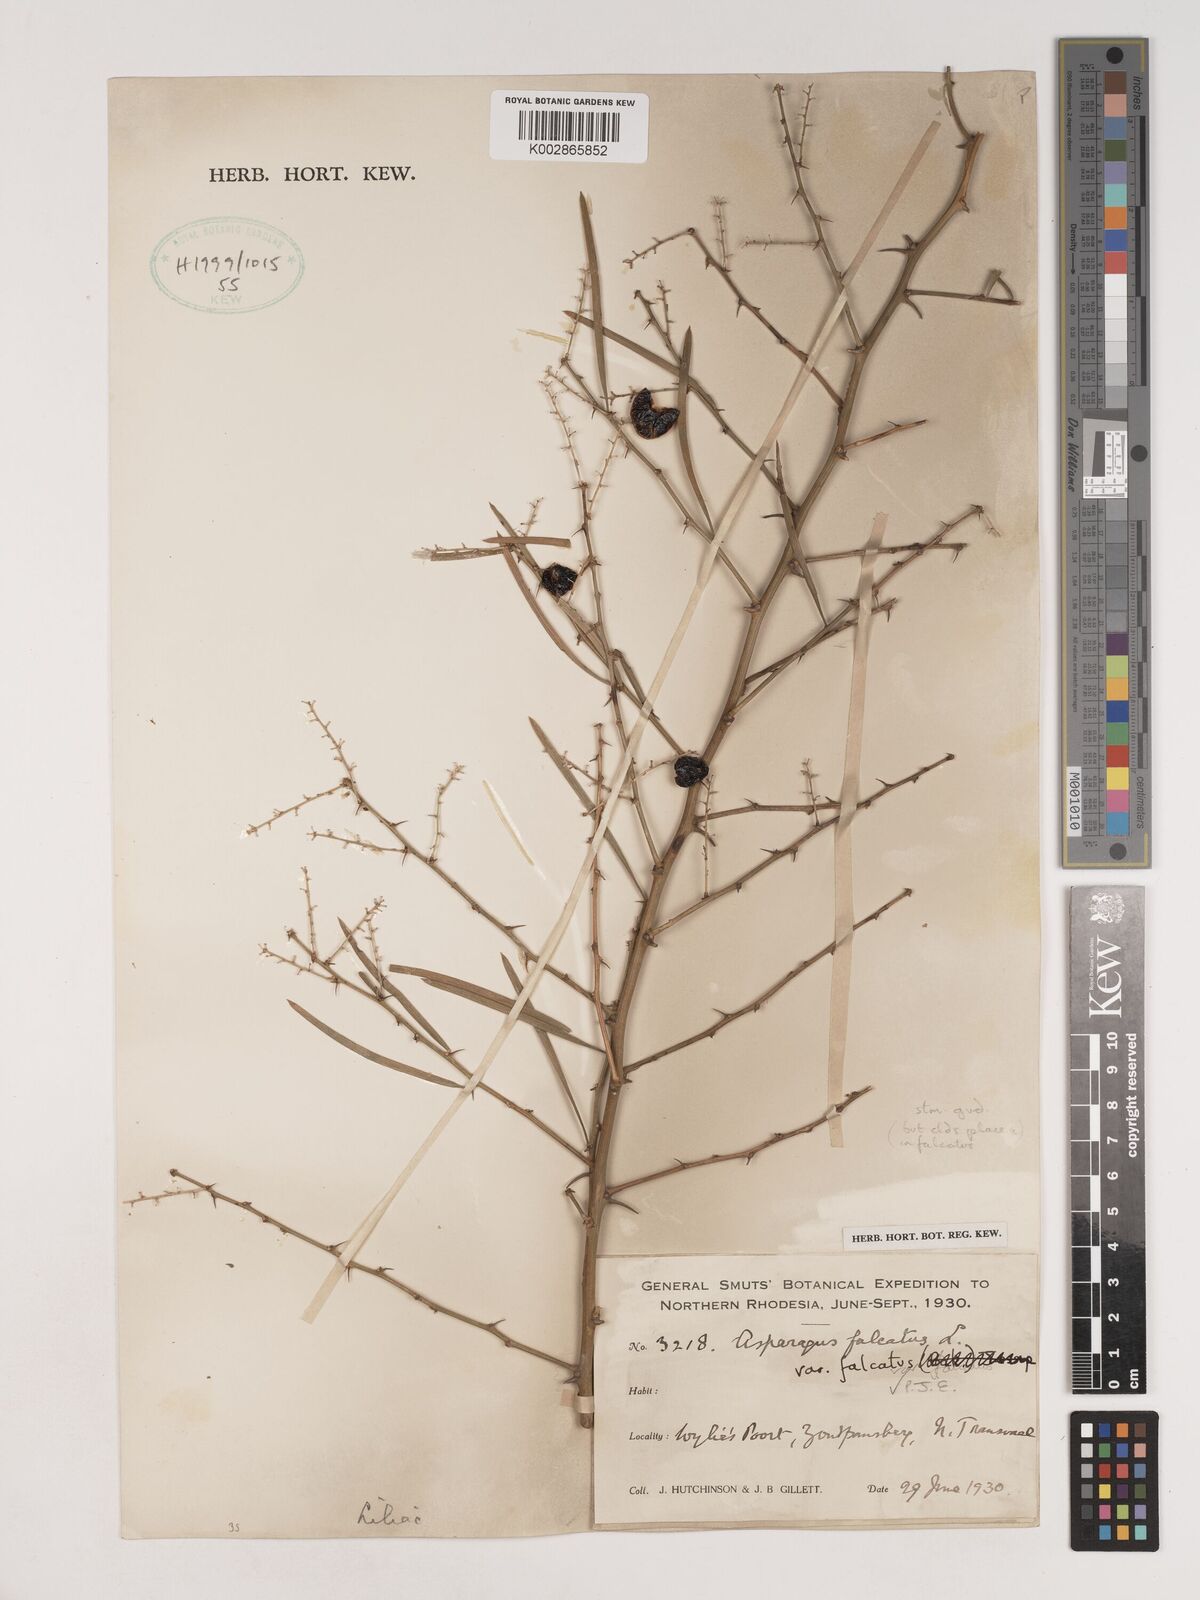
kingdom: Plantae
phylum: Tracheophyta
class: Liliopsida
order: Asparagales
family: Asparagaceae
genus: Asparagus
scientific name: Asparagus falcatus
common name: Asparagus
